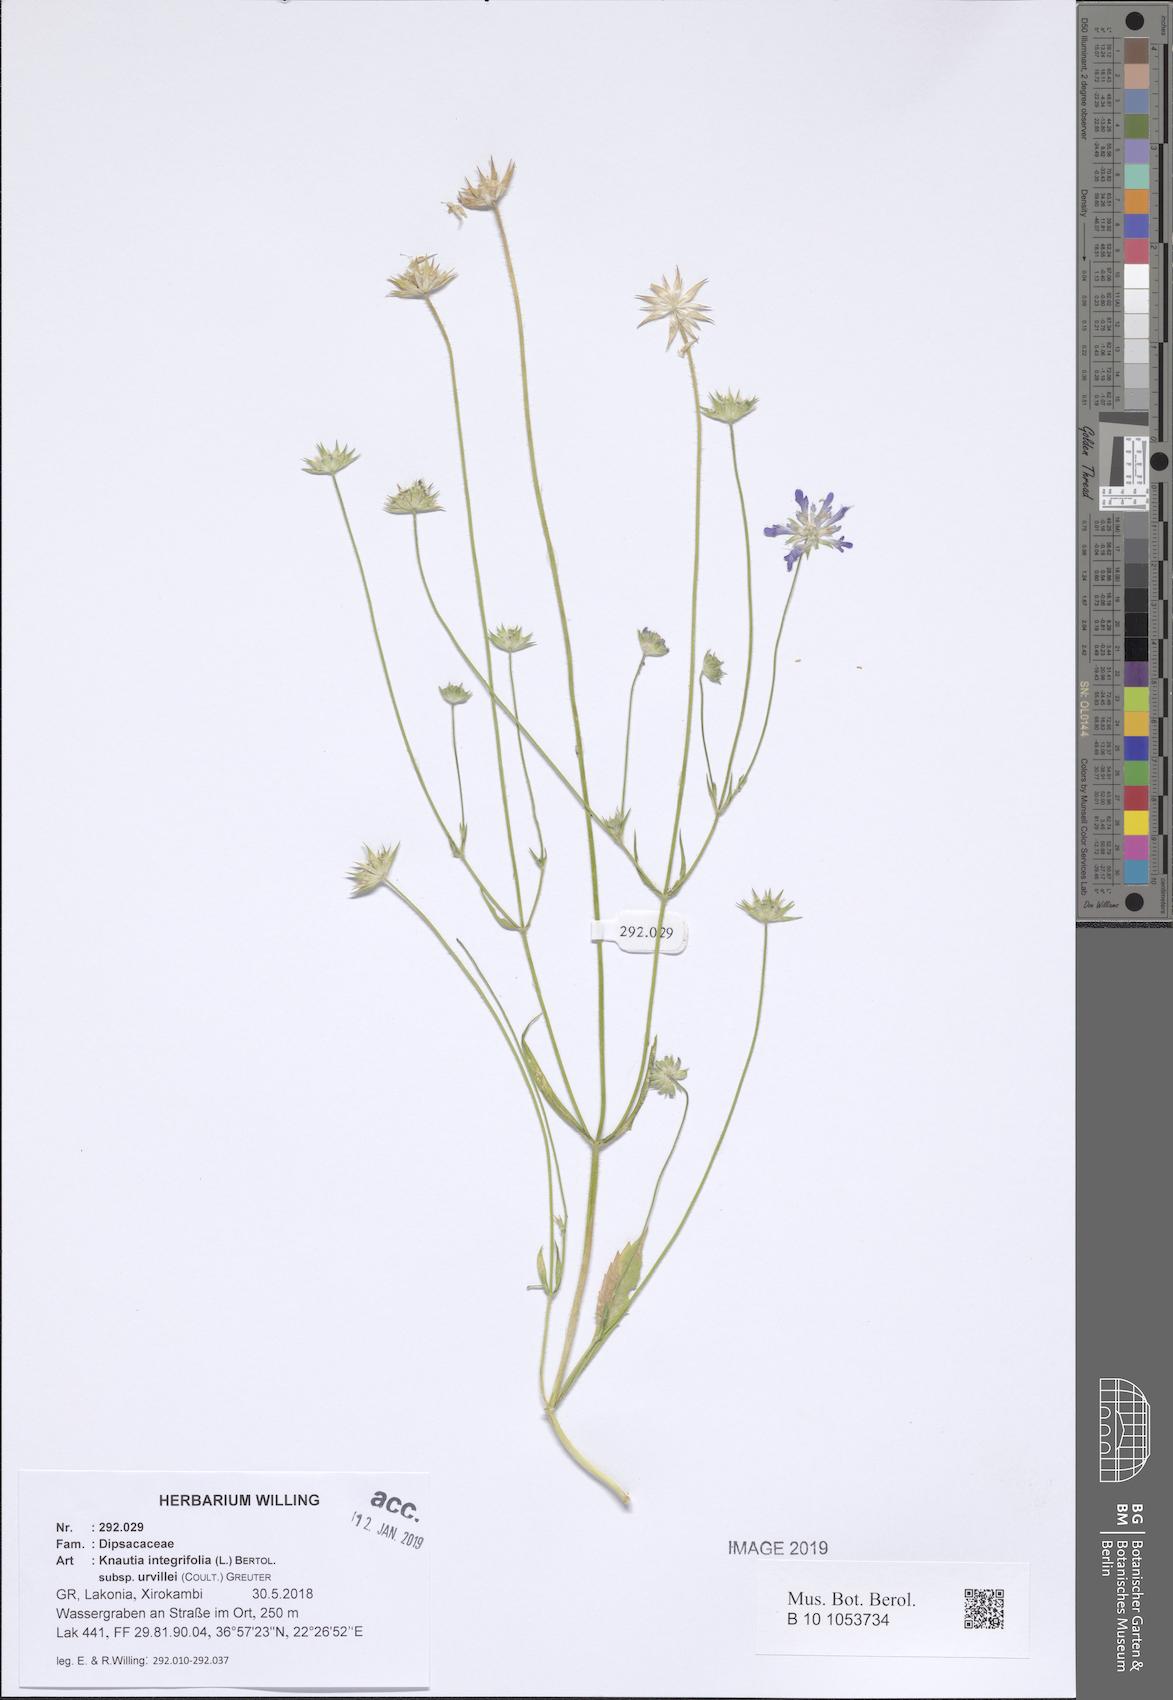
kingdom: Plantae
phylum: Tracheophyta
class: Magnoliopsida
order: Dipsacales
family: Caprifoliaceae
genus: Knautia
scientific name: Knautia integrifolia
